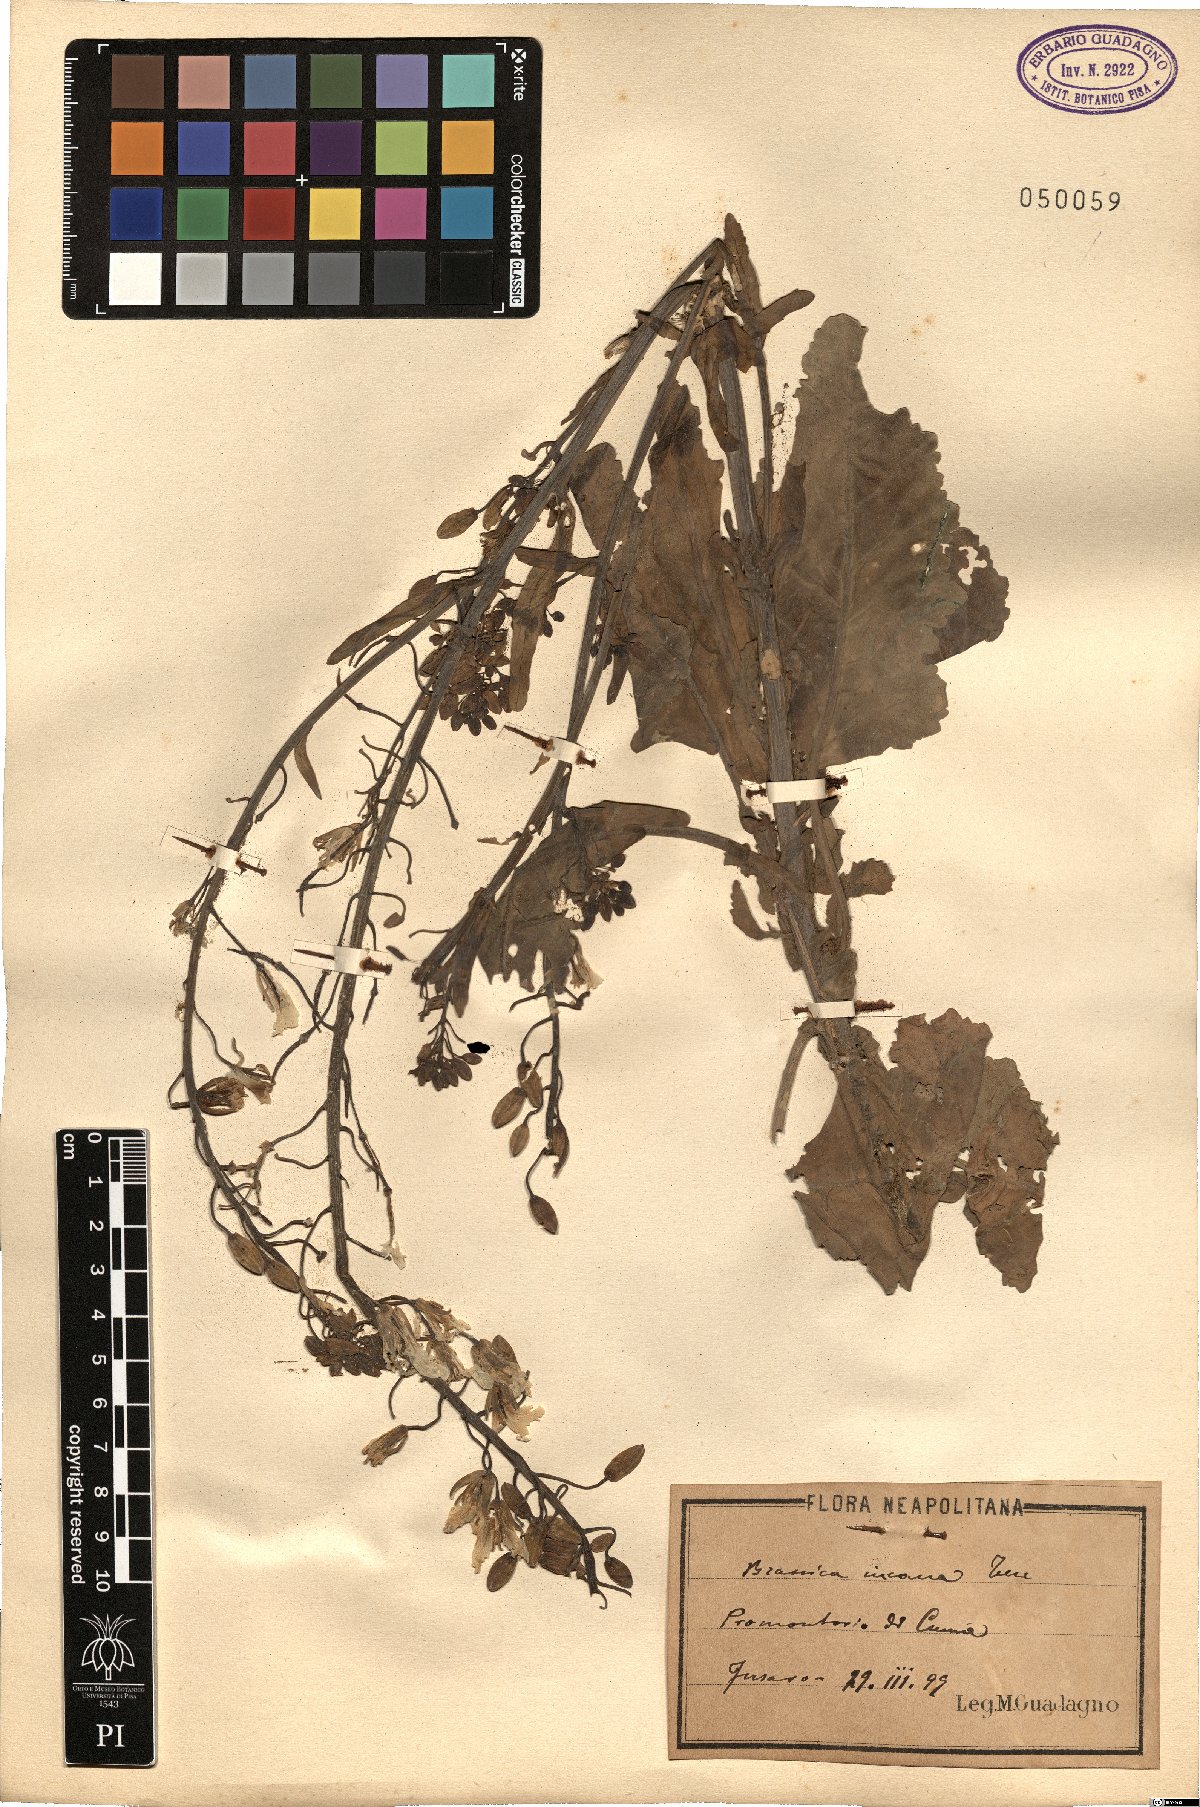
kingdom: Plantae
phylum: Tracheophyta
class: Magnoliopsida
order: Brassicales
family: Brassicaceae
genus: Brassica
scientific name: Brassica incana
